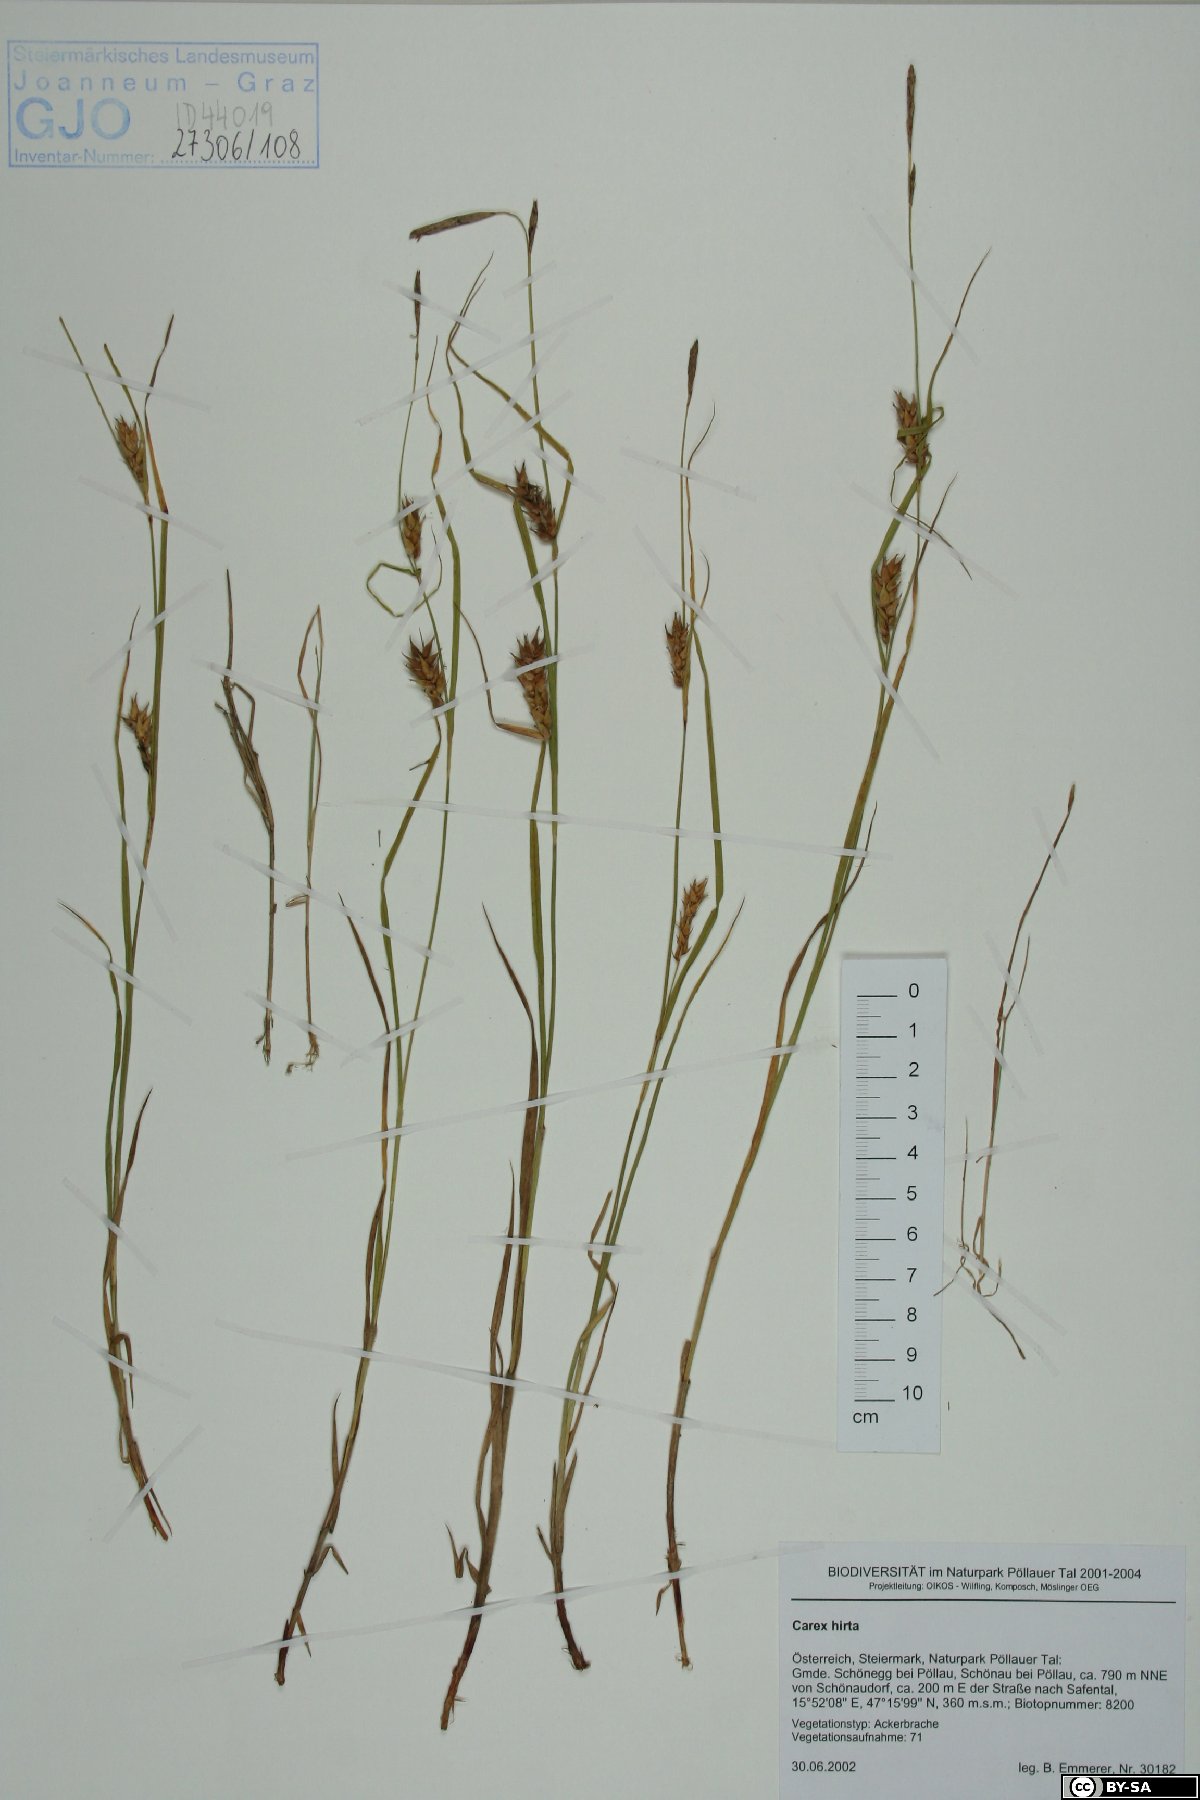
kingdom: Plantae
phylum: Tracheophyta
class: Liliopsida
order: Poales
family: Cyperaceae
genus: Carex
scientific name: Carex hirta
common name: Hairy sedge
